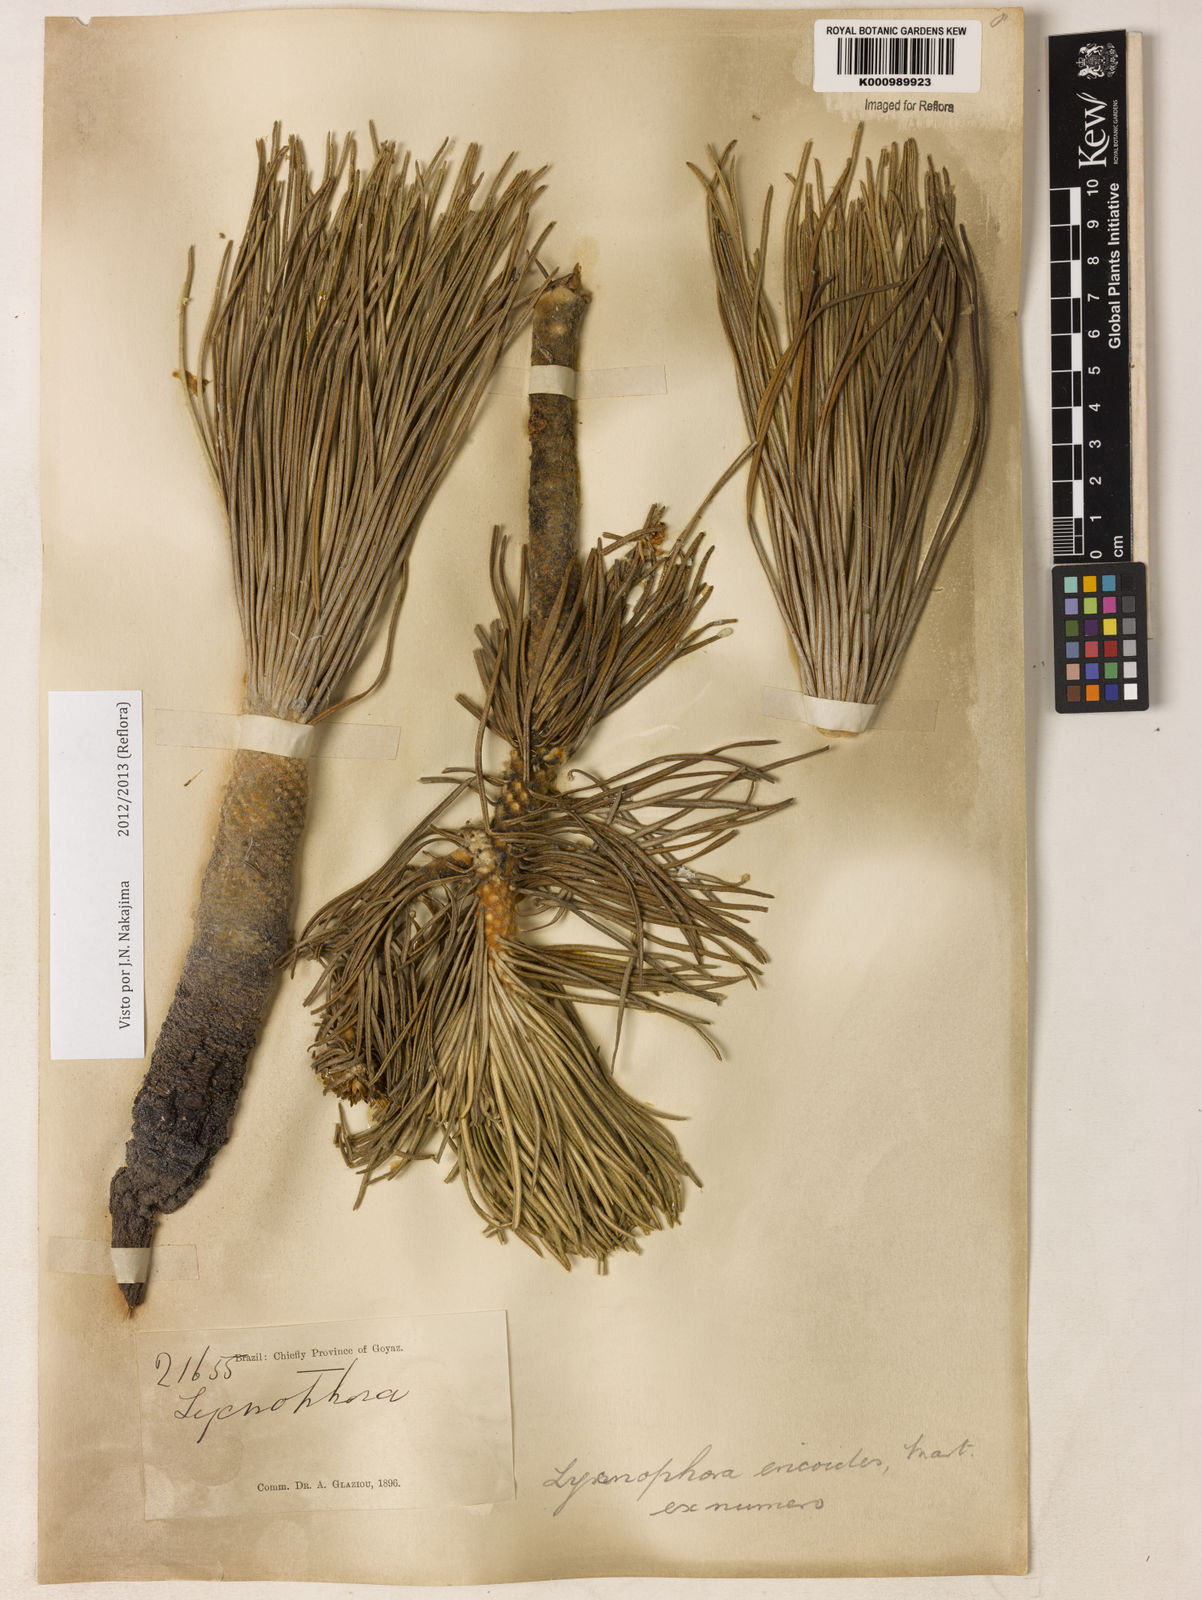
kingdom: Plantae
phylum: Tracheophyta
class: Magnoliopsida
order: Asterales
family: Asteraceae
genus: Lychnophora
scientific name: Lychnophora ericoides
